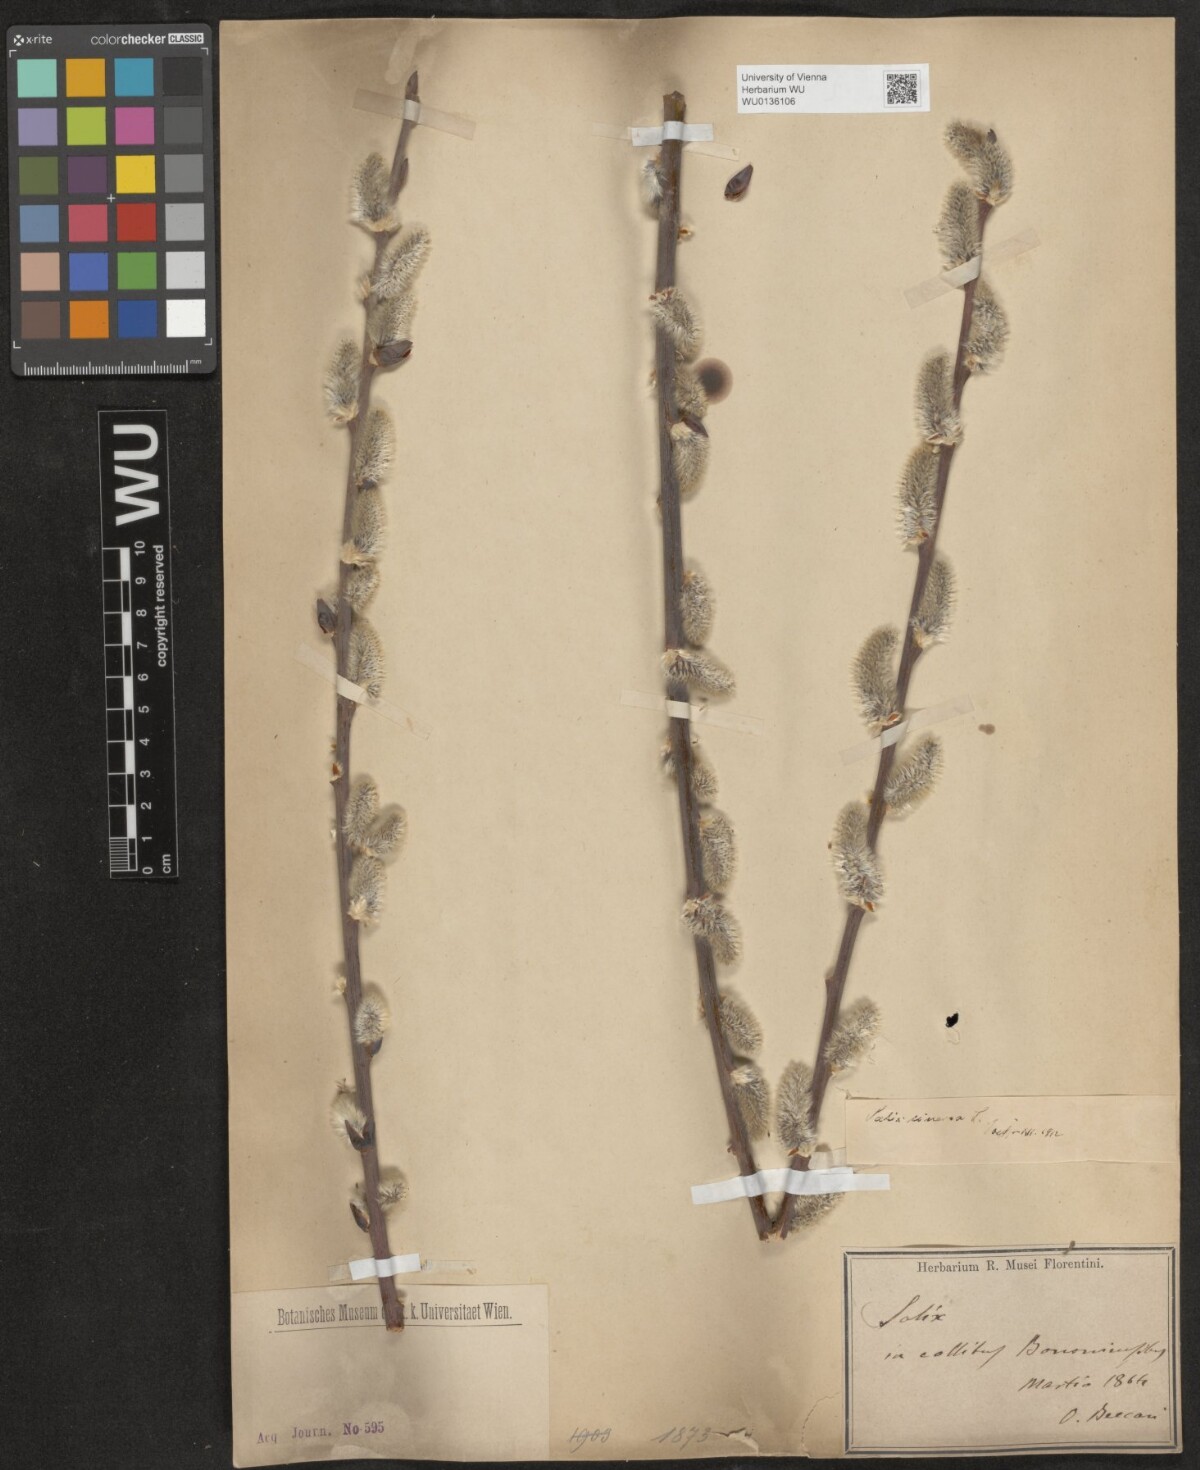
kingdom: Plantae
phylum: Tracheophyta
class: Magnoliopsida
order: Malpighiales
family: Salicaceae
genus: Salix
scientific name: Salix cinerea
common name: Common sallow
